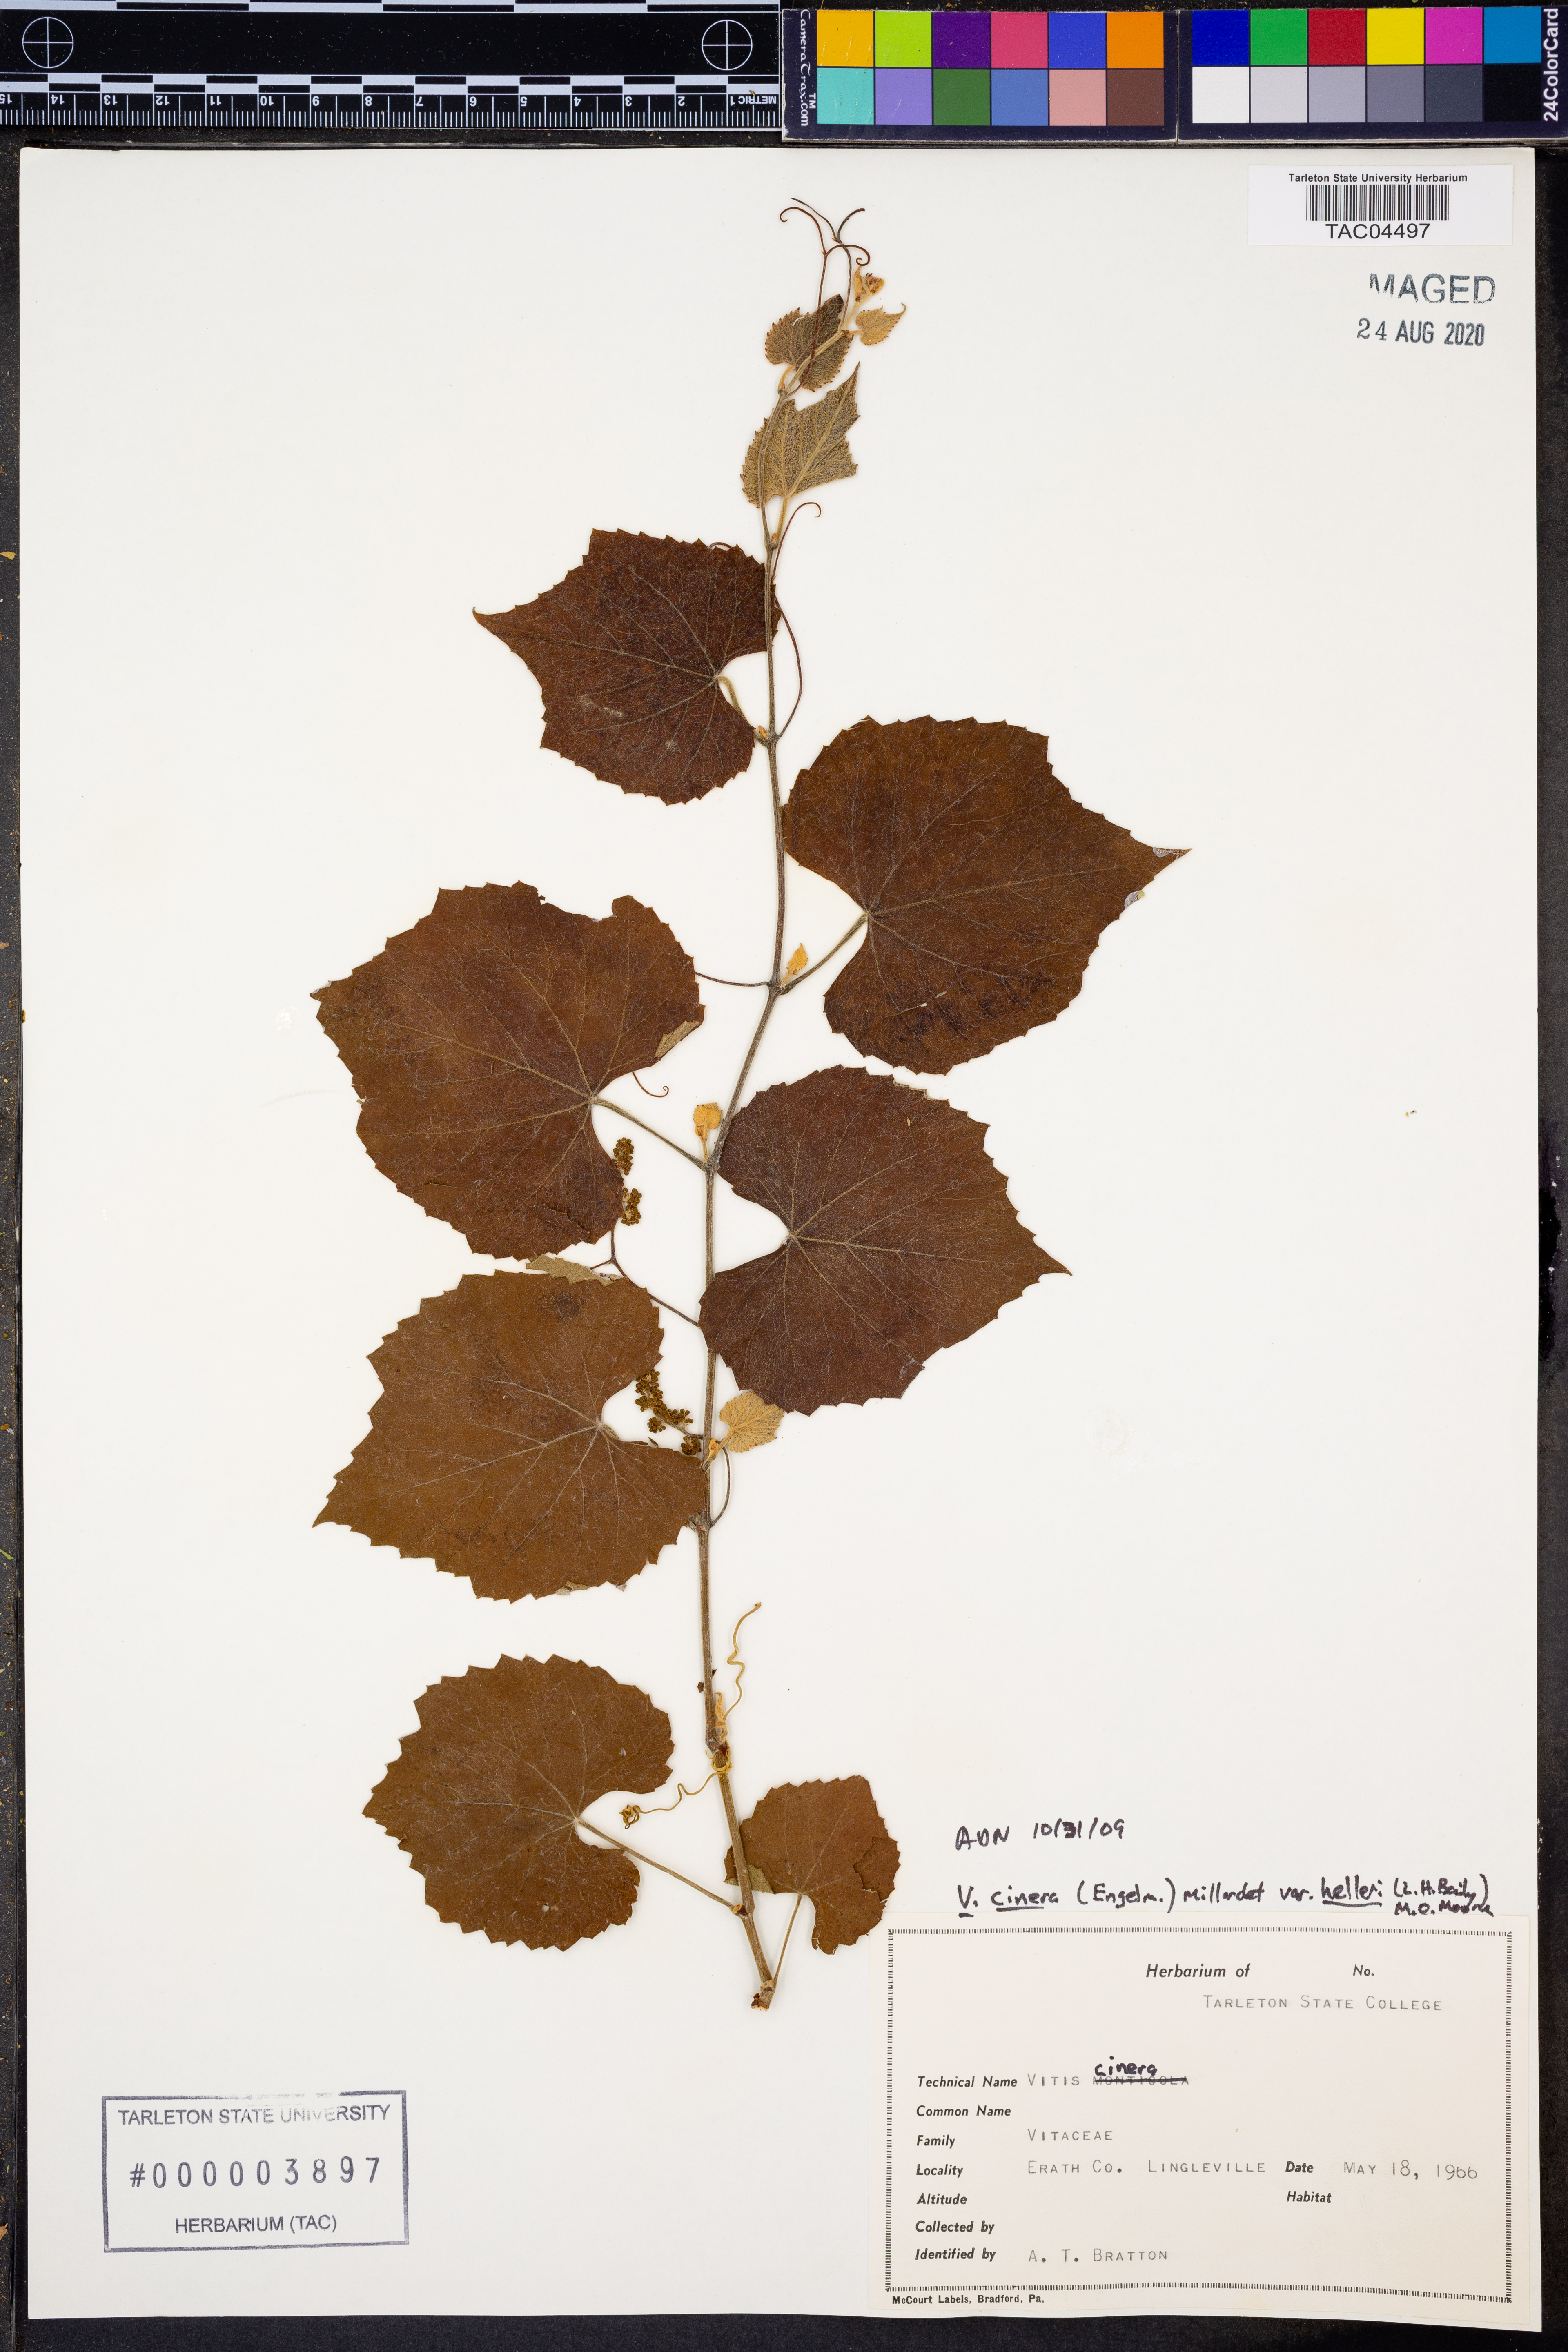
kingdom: Plantae
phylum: Tracheophyta
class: Magnoliopsida
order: Vitales
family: Vitaceae
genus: Vitis
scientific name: Vitis cinerea
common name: Ashy grape
